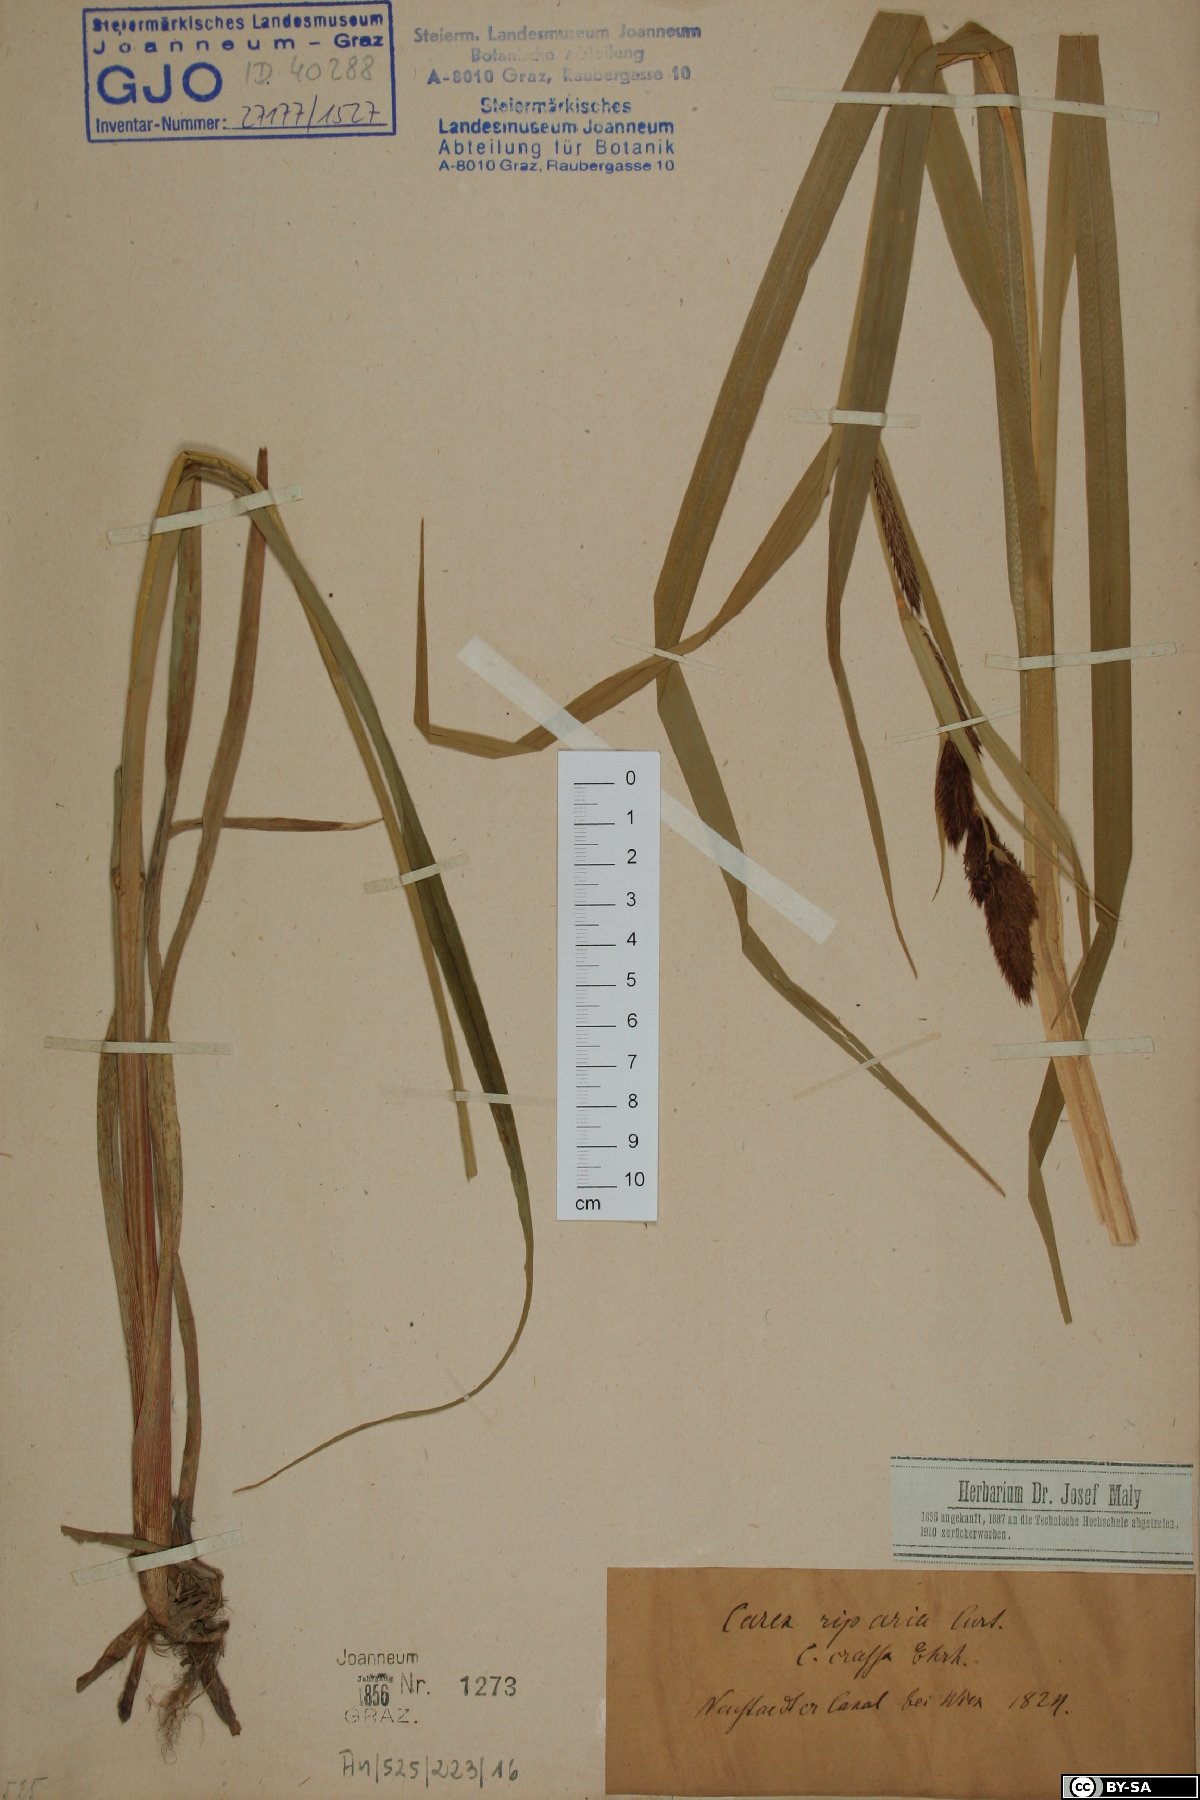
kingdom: Plantae
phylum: Tracheophyta
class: Liliopsida
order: Poales
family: Cyperaceae
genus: Carex
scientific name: Carex riparia
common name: Greater pond-sedge
